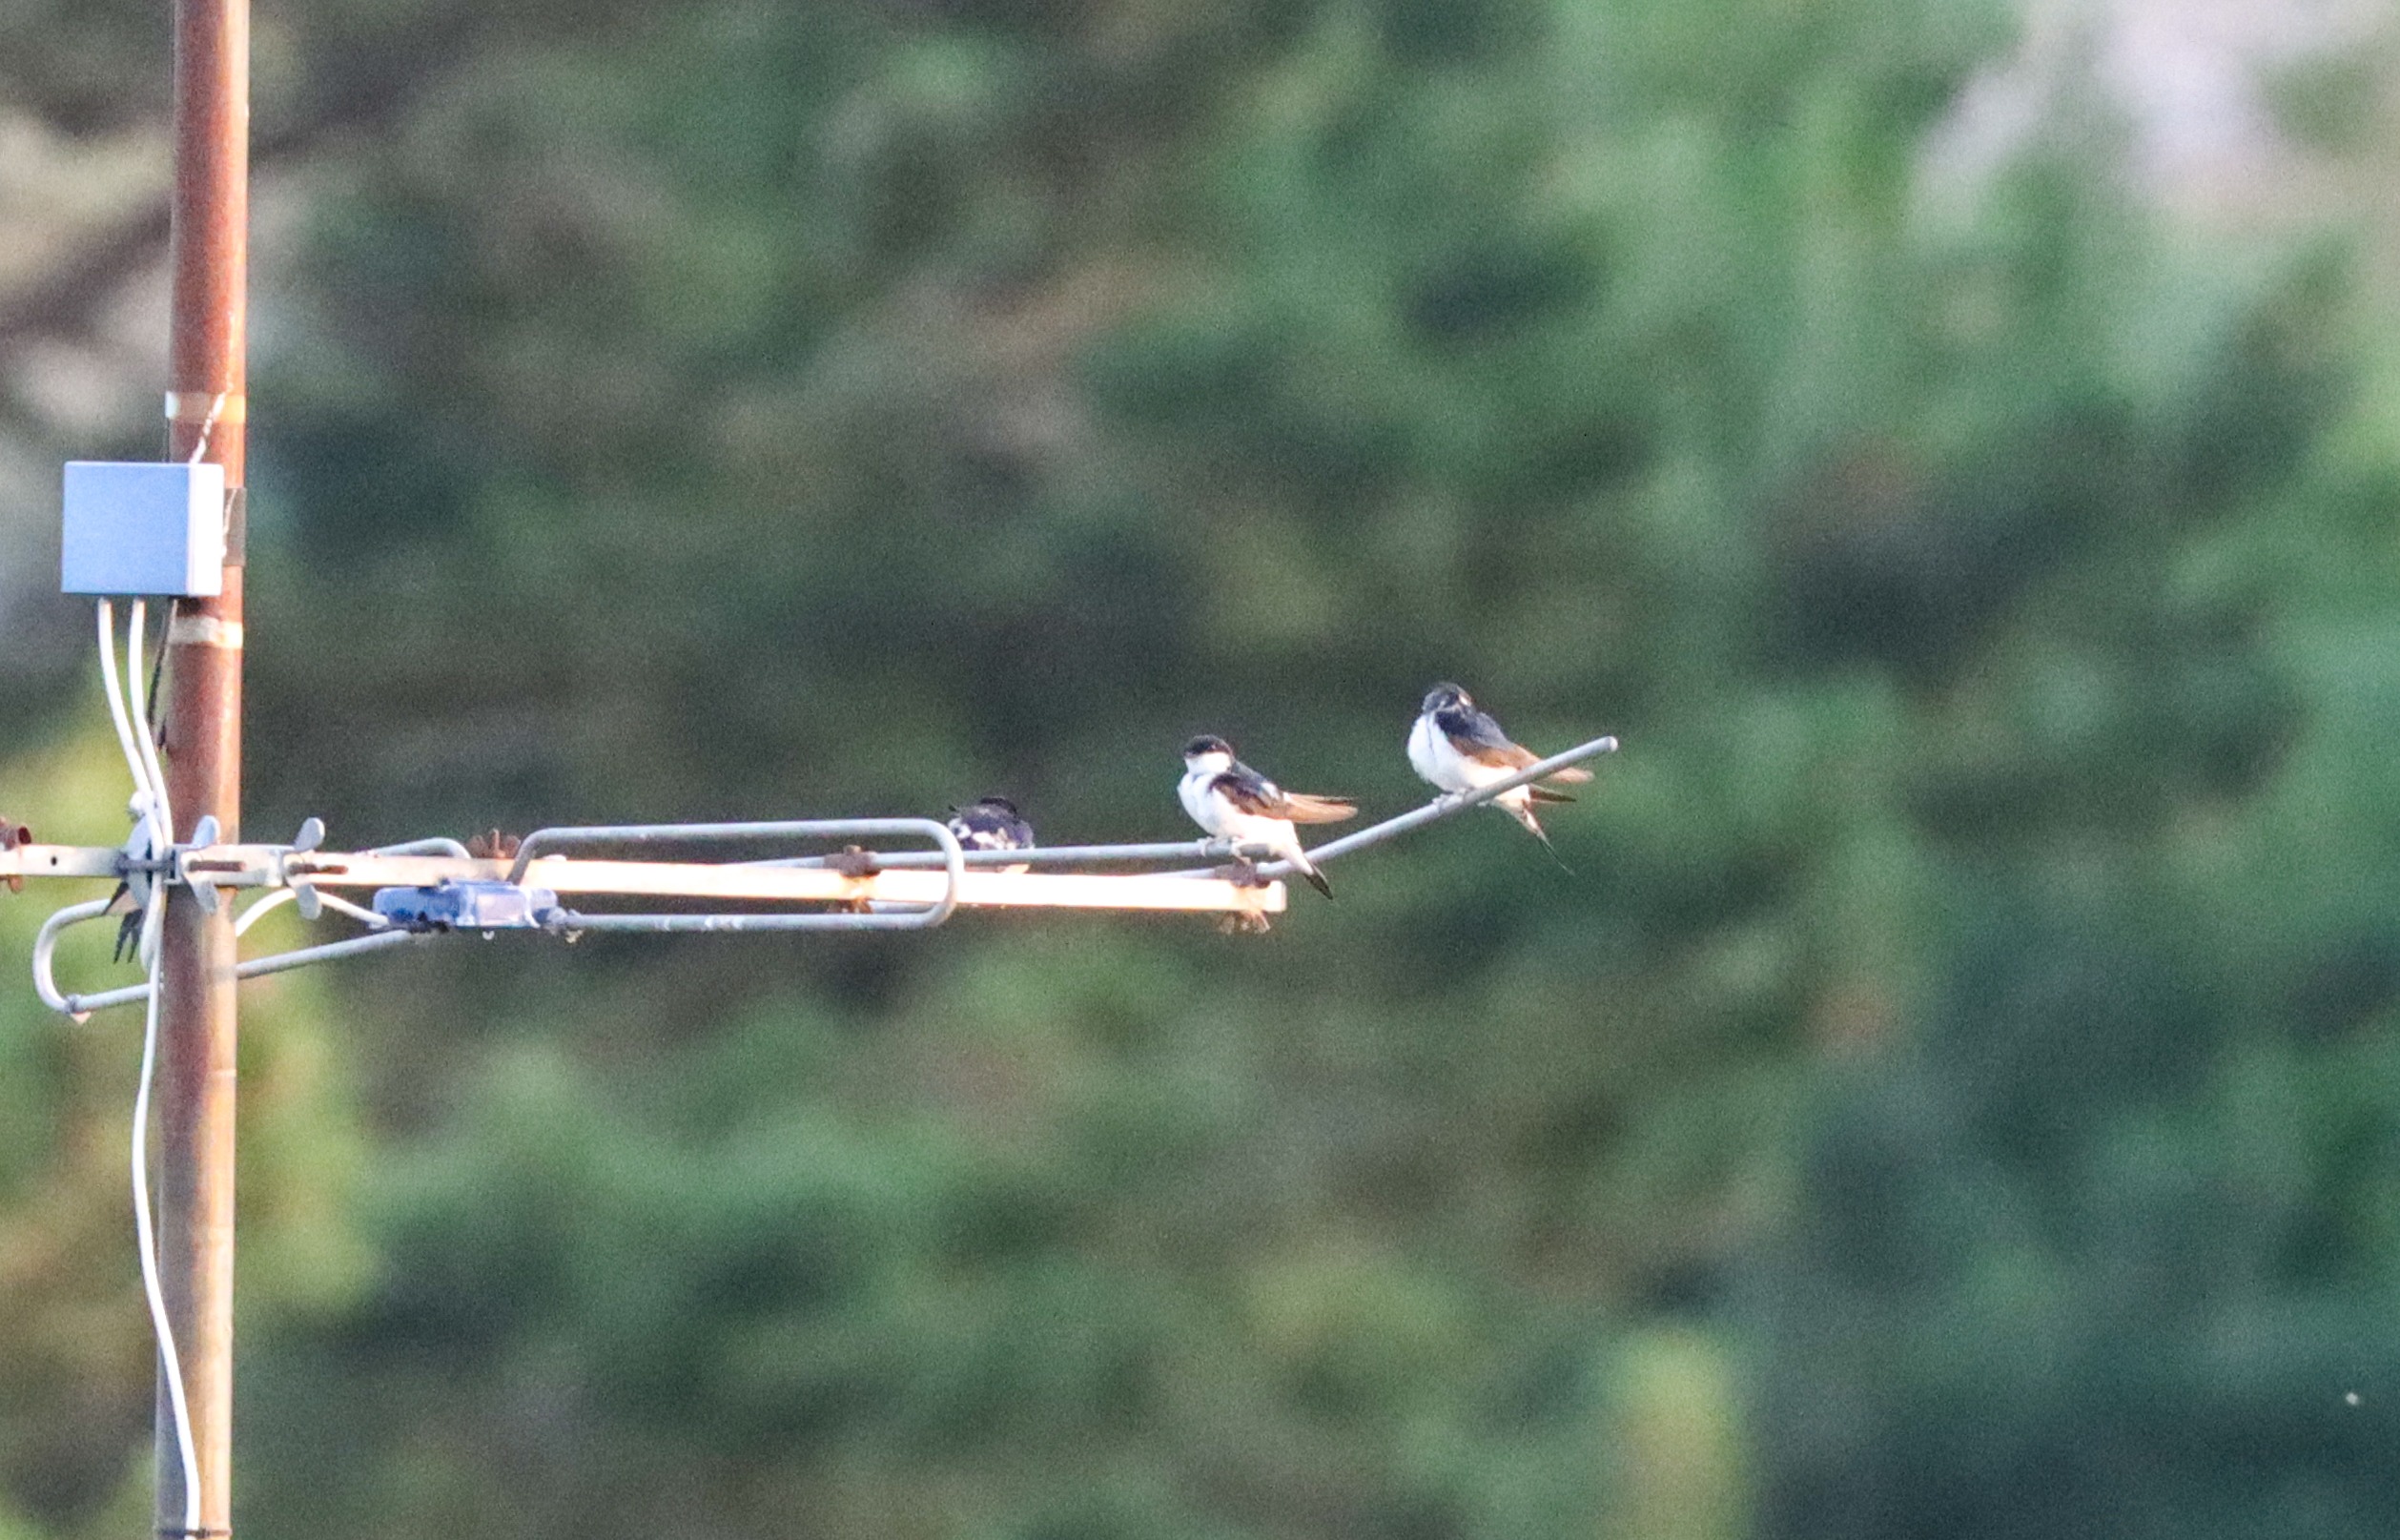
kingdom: Animalia
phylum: Chordata
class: Aves
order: Passeriformes
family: Hirundinidae
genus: Delichon
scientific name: Delichon urbicum
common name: Bysvale
